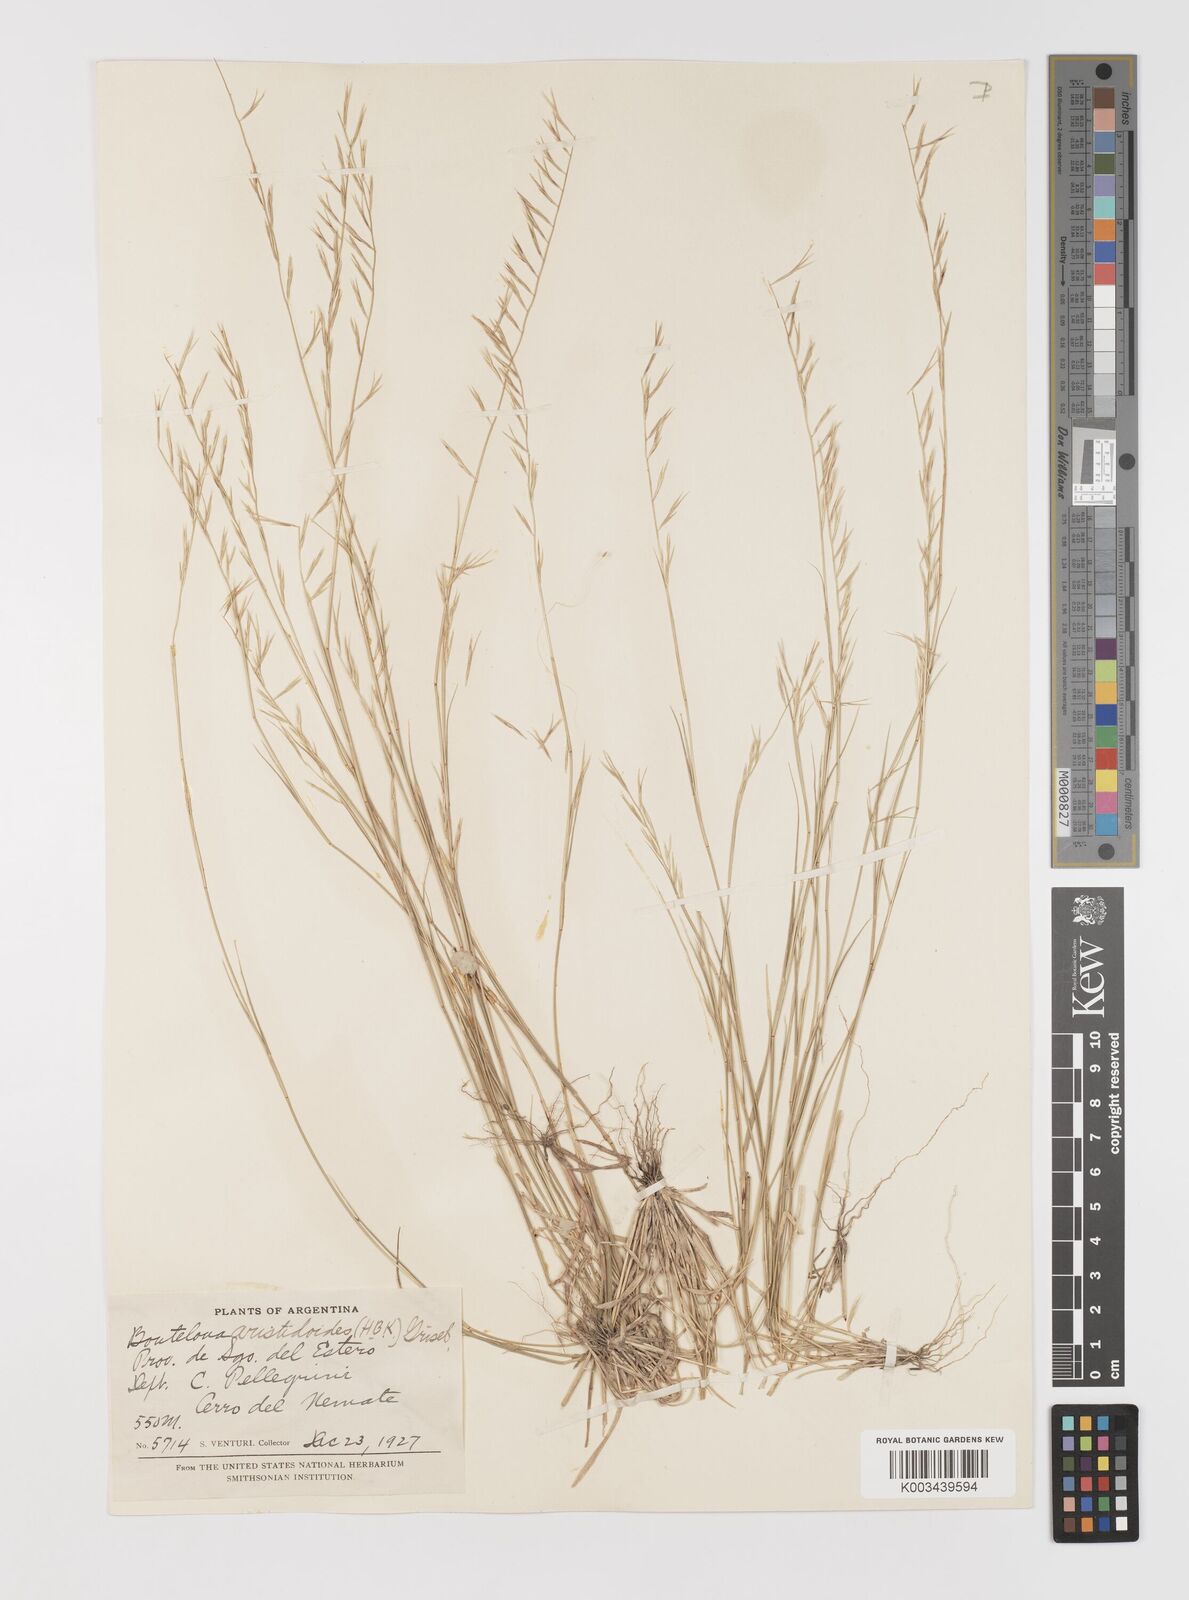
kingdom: Plantae
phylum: Tracheophyta
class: Liliopsida
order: Poales
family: Poaceae
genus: Bouteloua
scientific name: Bouteloua
